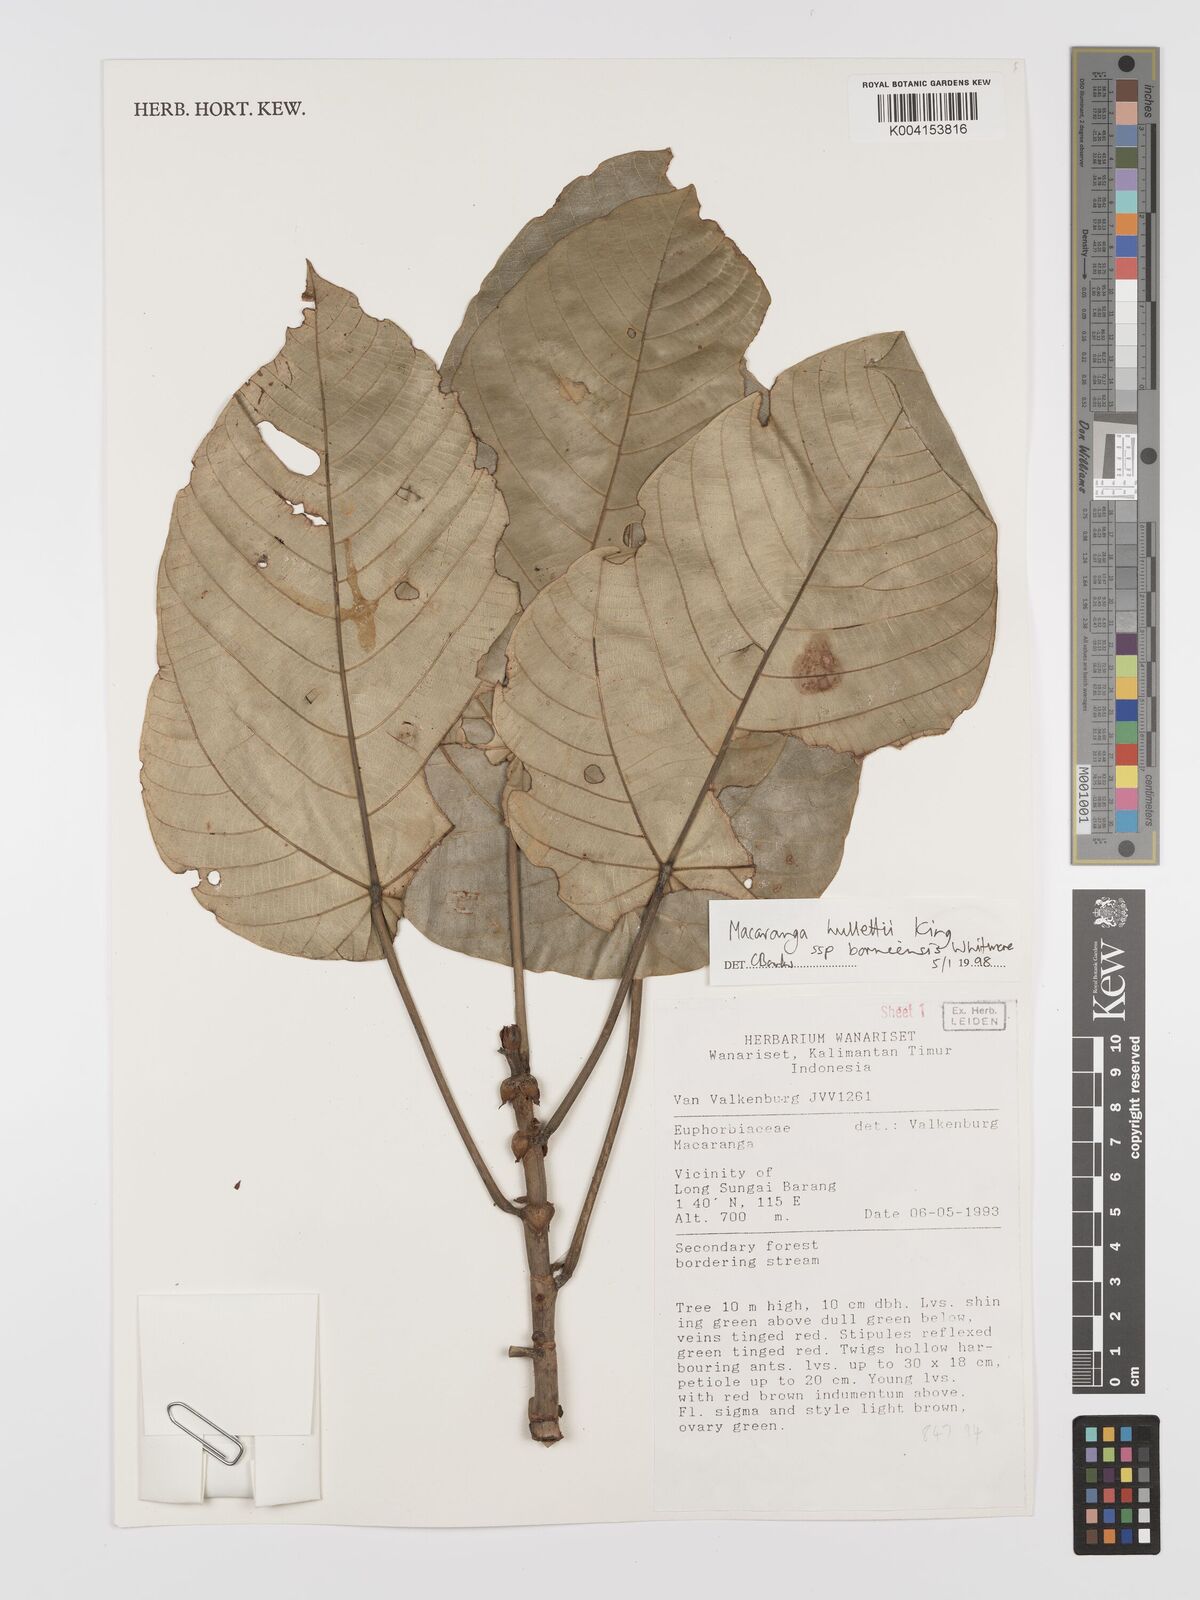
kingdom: Plantae
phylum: Tracheophyta
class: Magnoliopsida
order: Malpighiales
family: Euphorbiaceae
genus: Macaranga
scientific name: Macaranga hullettii
